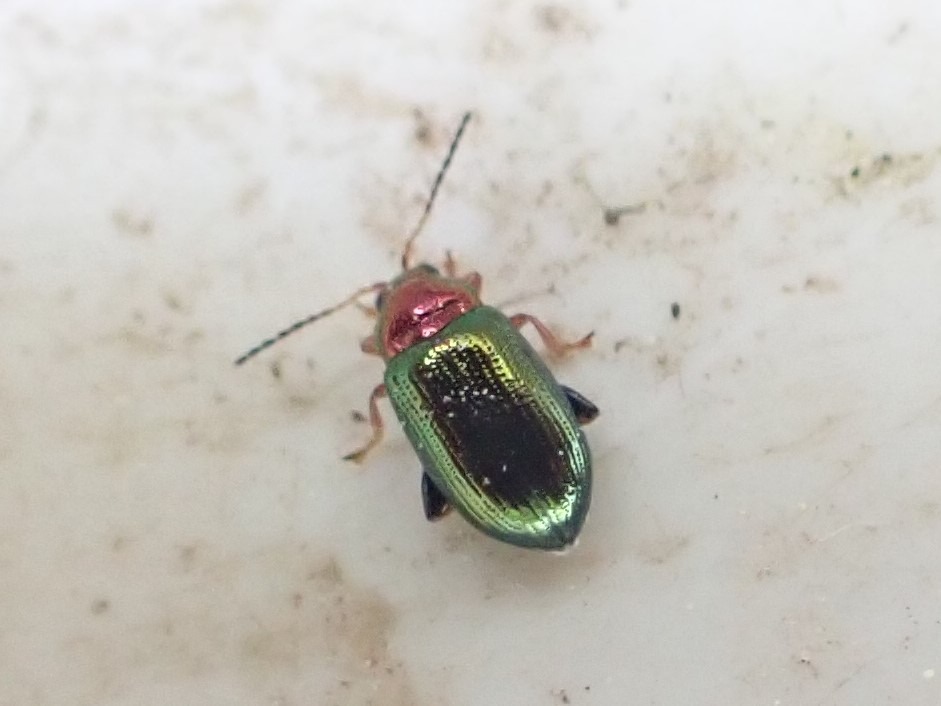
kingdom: Animalia
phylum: Arthropoda
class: Insecta
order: Coleoptera
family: Chrysomelidae
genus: Crepidodera
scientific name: Crepidodera aurata
